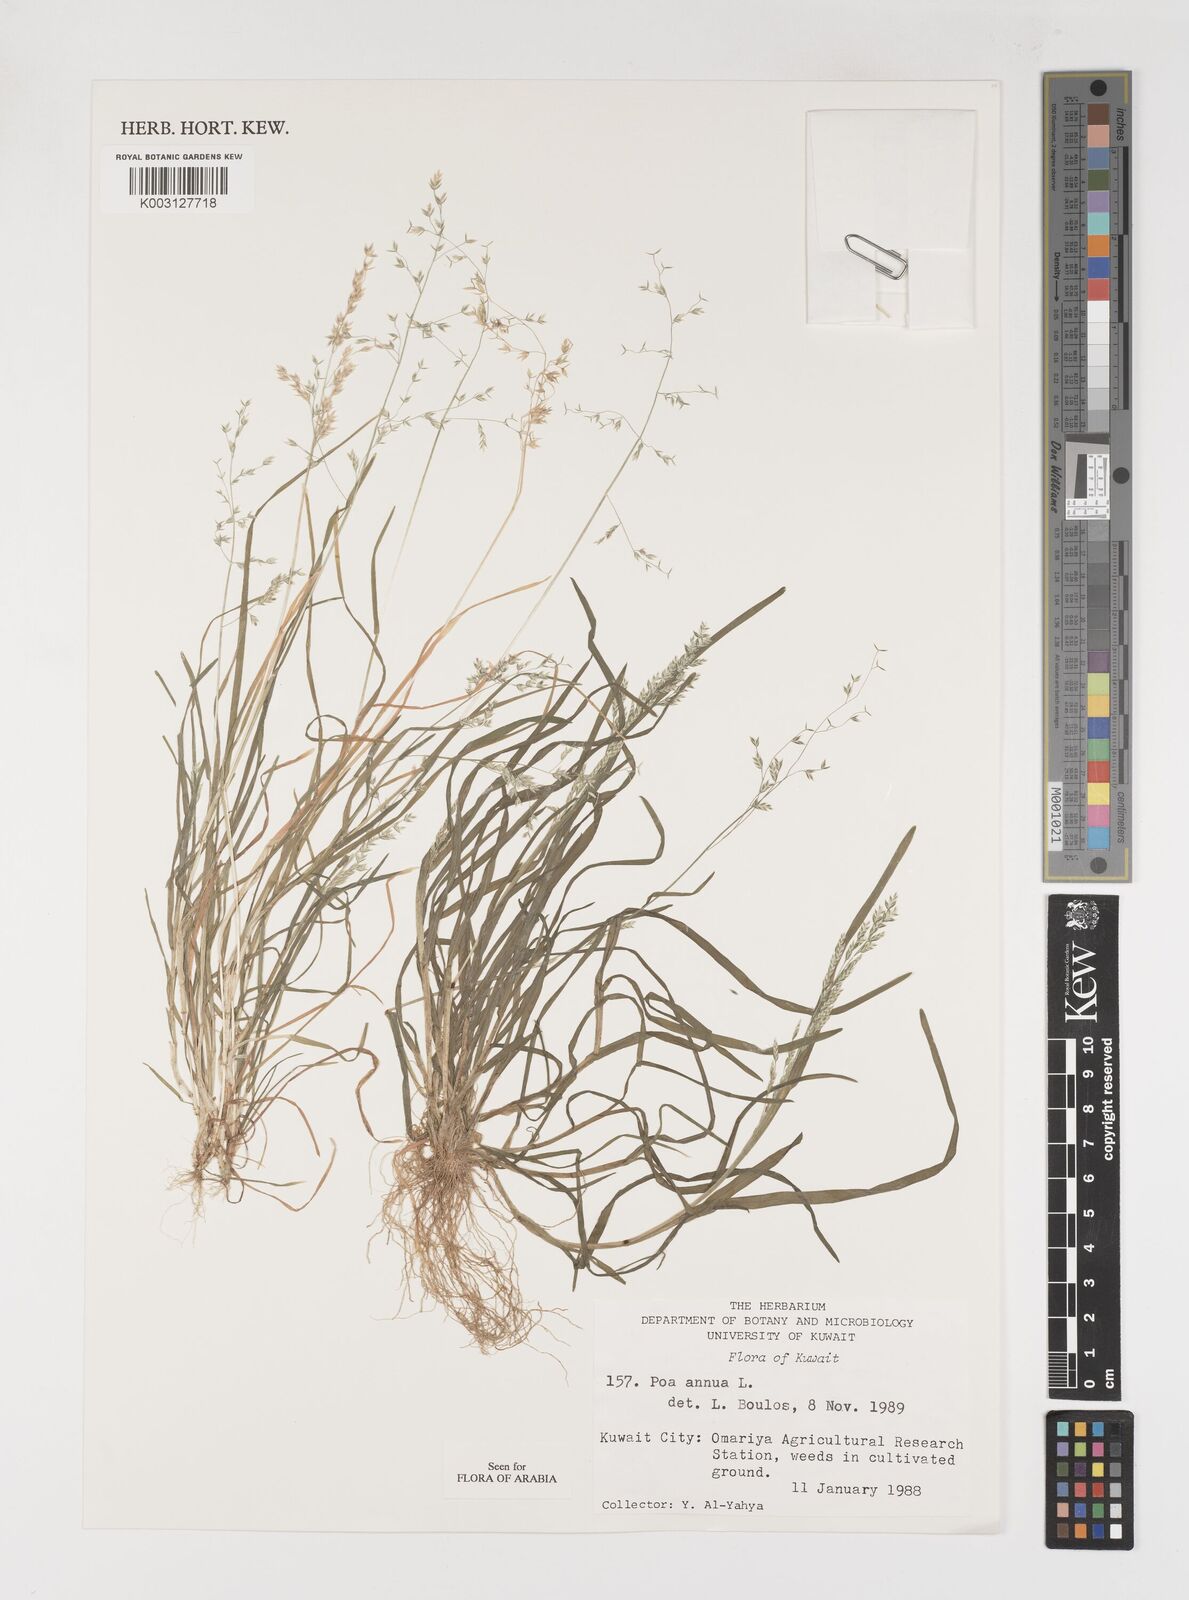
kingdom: Plantae
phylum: Tracheophyta
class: Liliopsida
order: Poales
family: Poaceae
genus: Poa
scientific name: Poa annua
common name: Annual bluegrass
